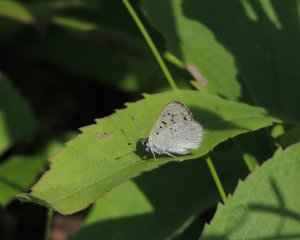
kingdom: Animalia
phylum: Arthropoda
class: Insecta
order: Lepidoptera
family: Sesiidae
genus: Sesia
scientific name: Sesia Lycaena epixanthe
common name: Bog Copper
